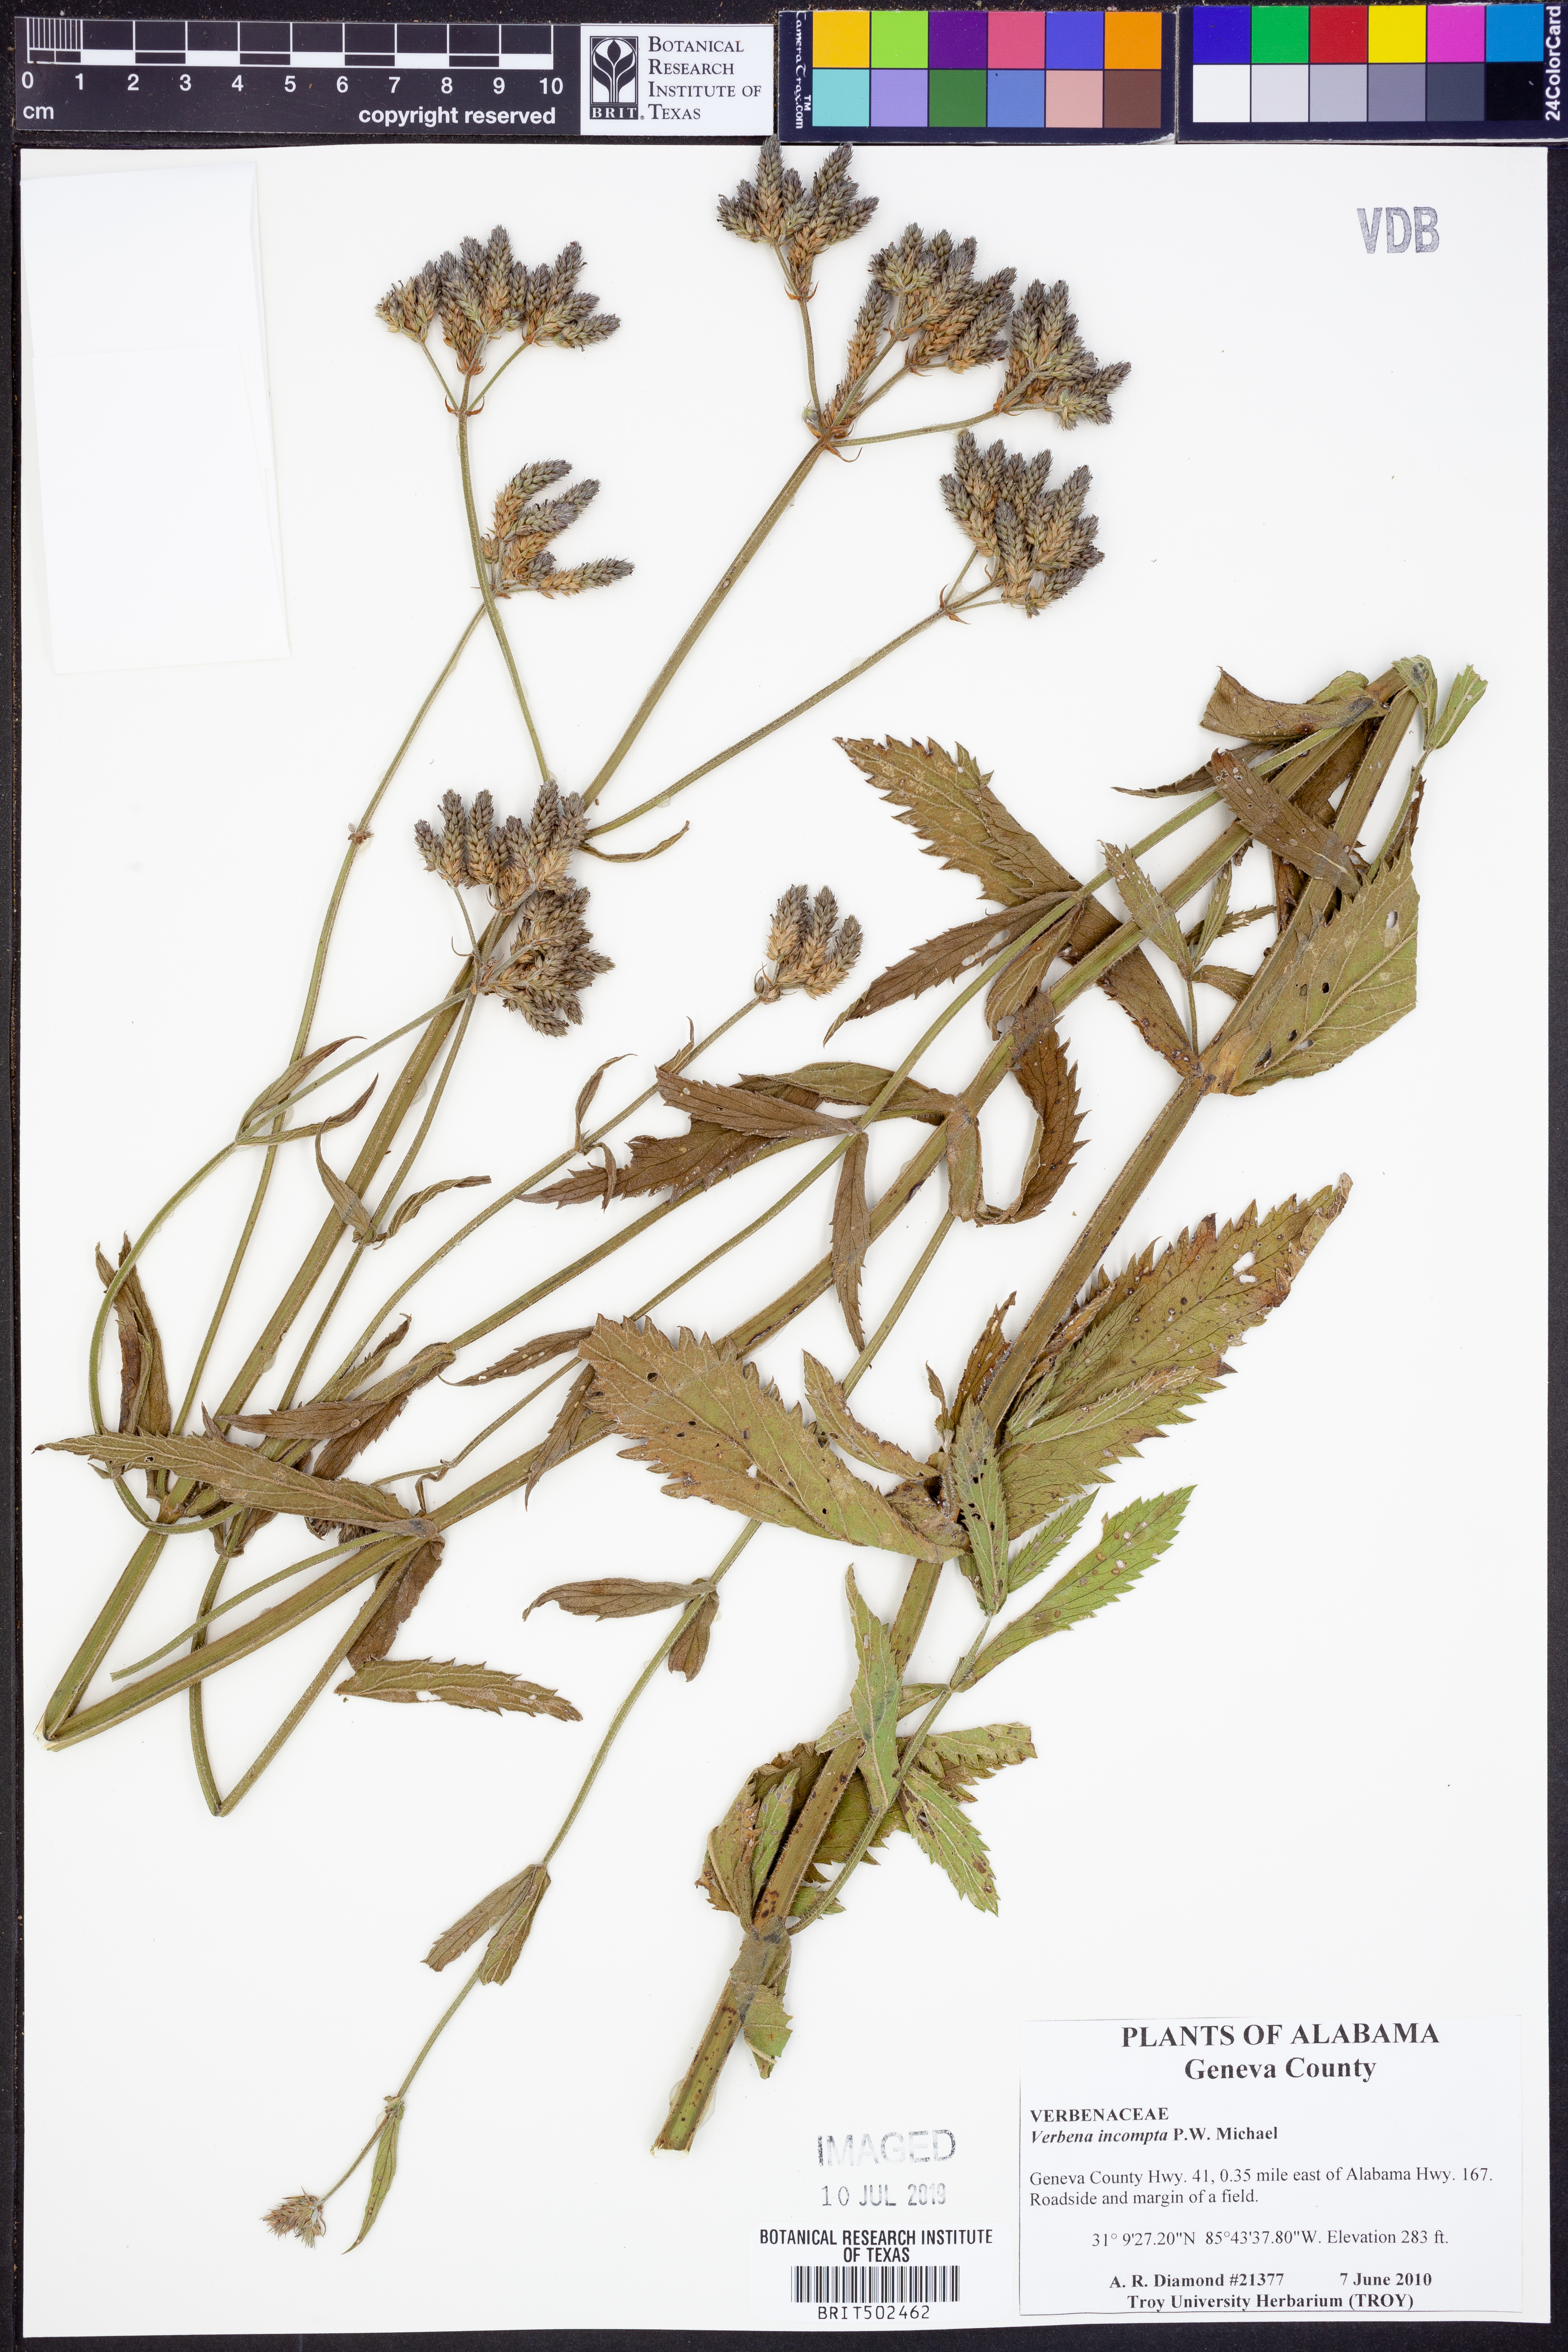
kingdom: Plantae
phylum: Tracheophyta
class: Magnoliopsida
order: Lamiales
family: Verbenaceae
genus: Verbena
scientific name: Verbena incompta
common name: Purpletop vervain
